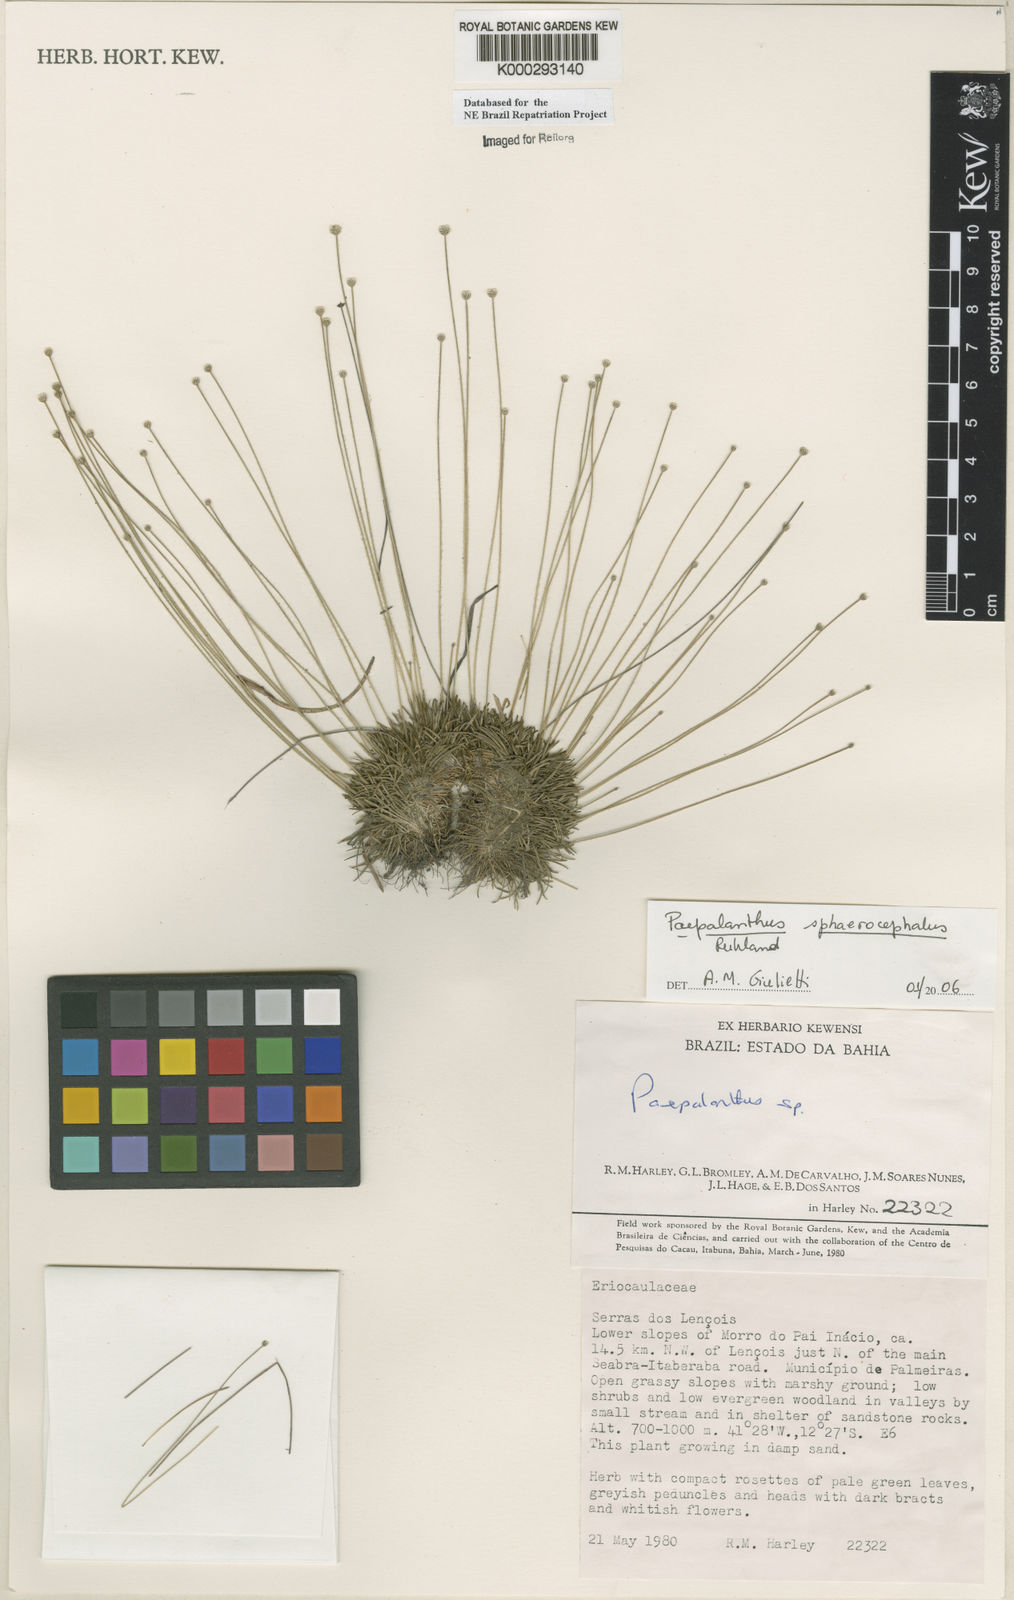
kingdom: Plantae
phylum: Tracheophyta
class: Liliopsida
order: Poales
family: Eriocaulaceae
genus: Paepalanthus
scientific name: Paepalanthus
